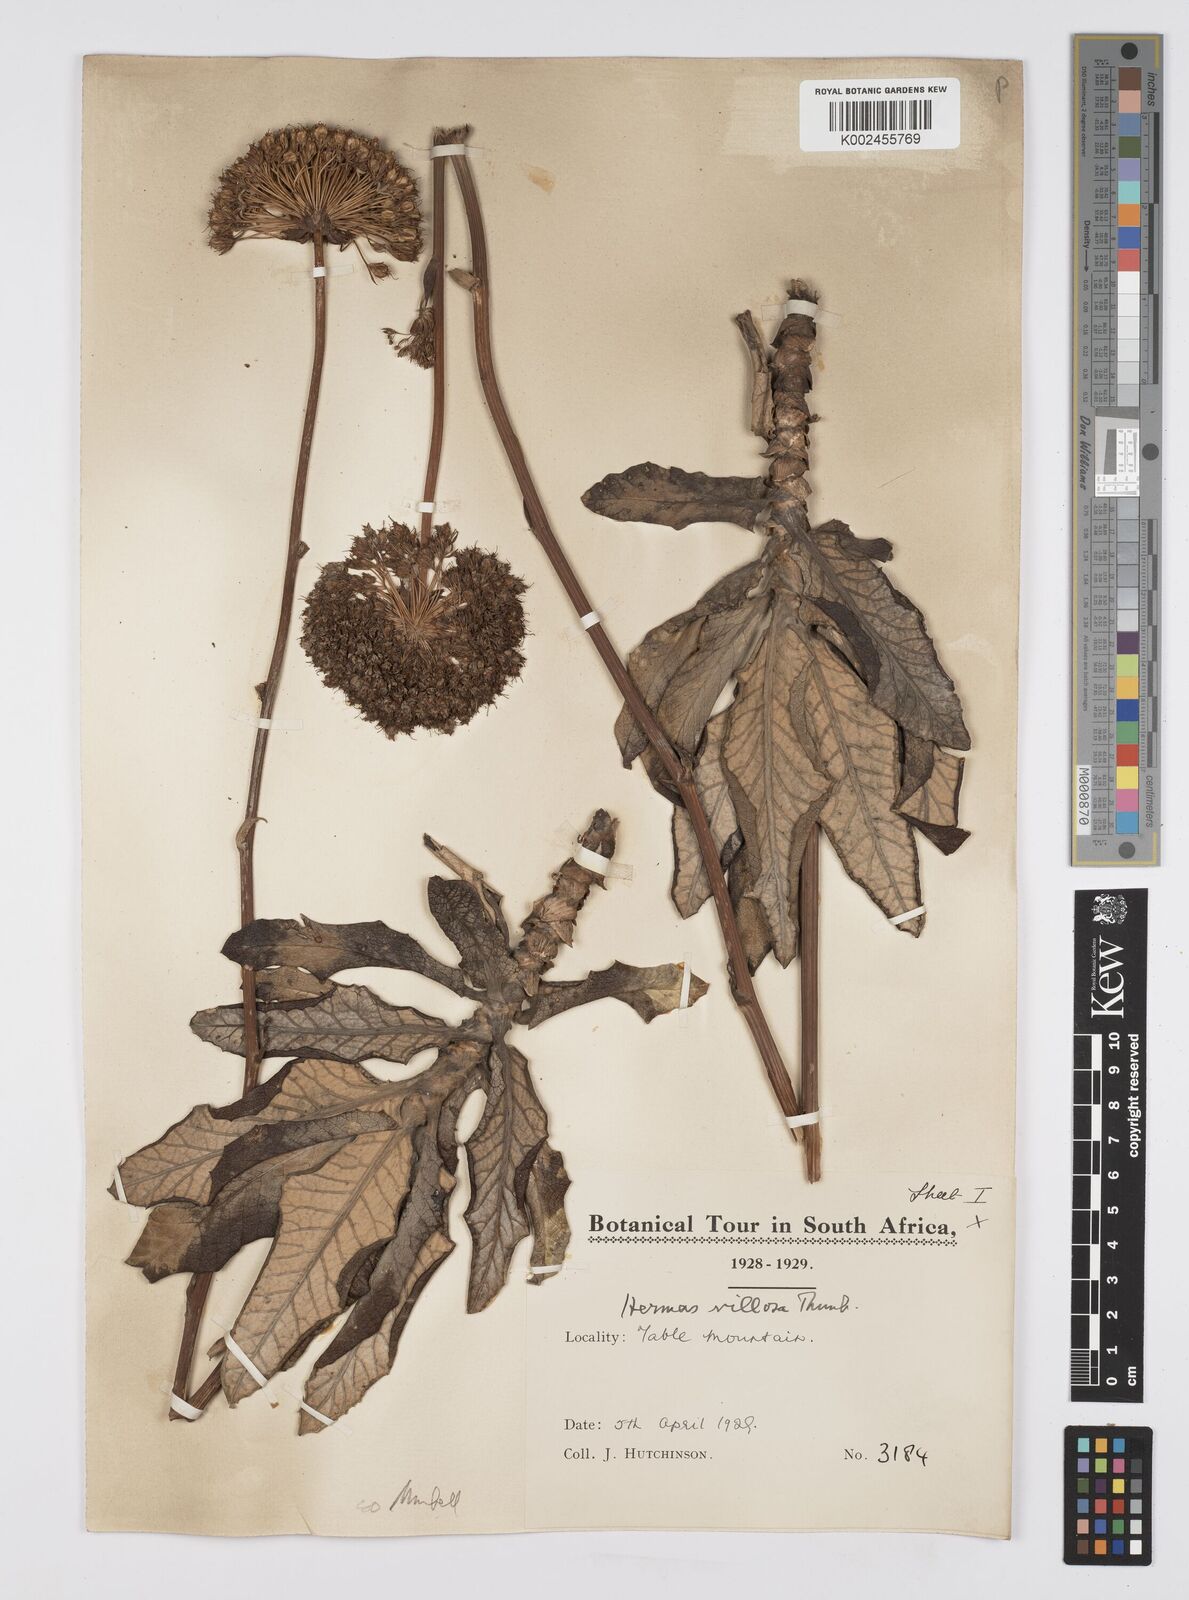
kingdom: Plantae
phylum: Tracheophyta
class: Magnoliopsida
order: Apiales
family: Apiaceae
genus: Hermas
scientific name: Hermas villosa
